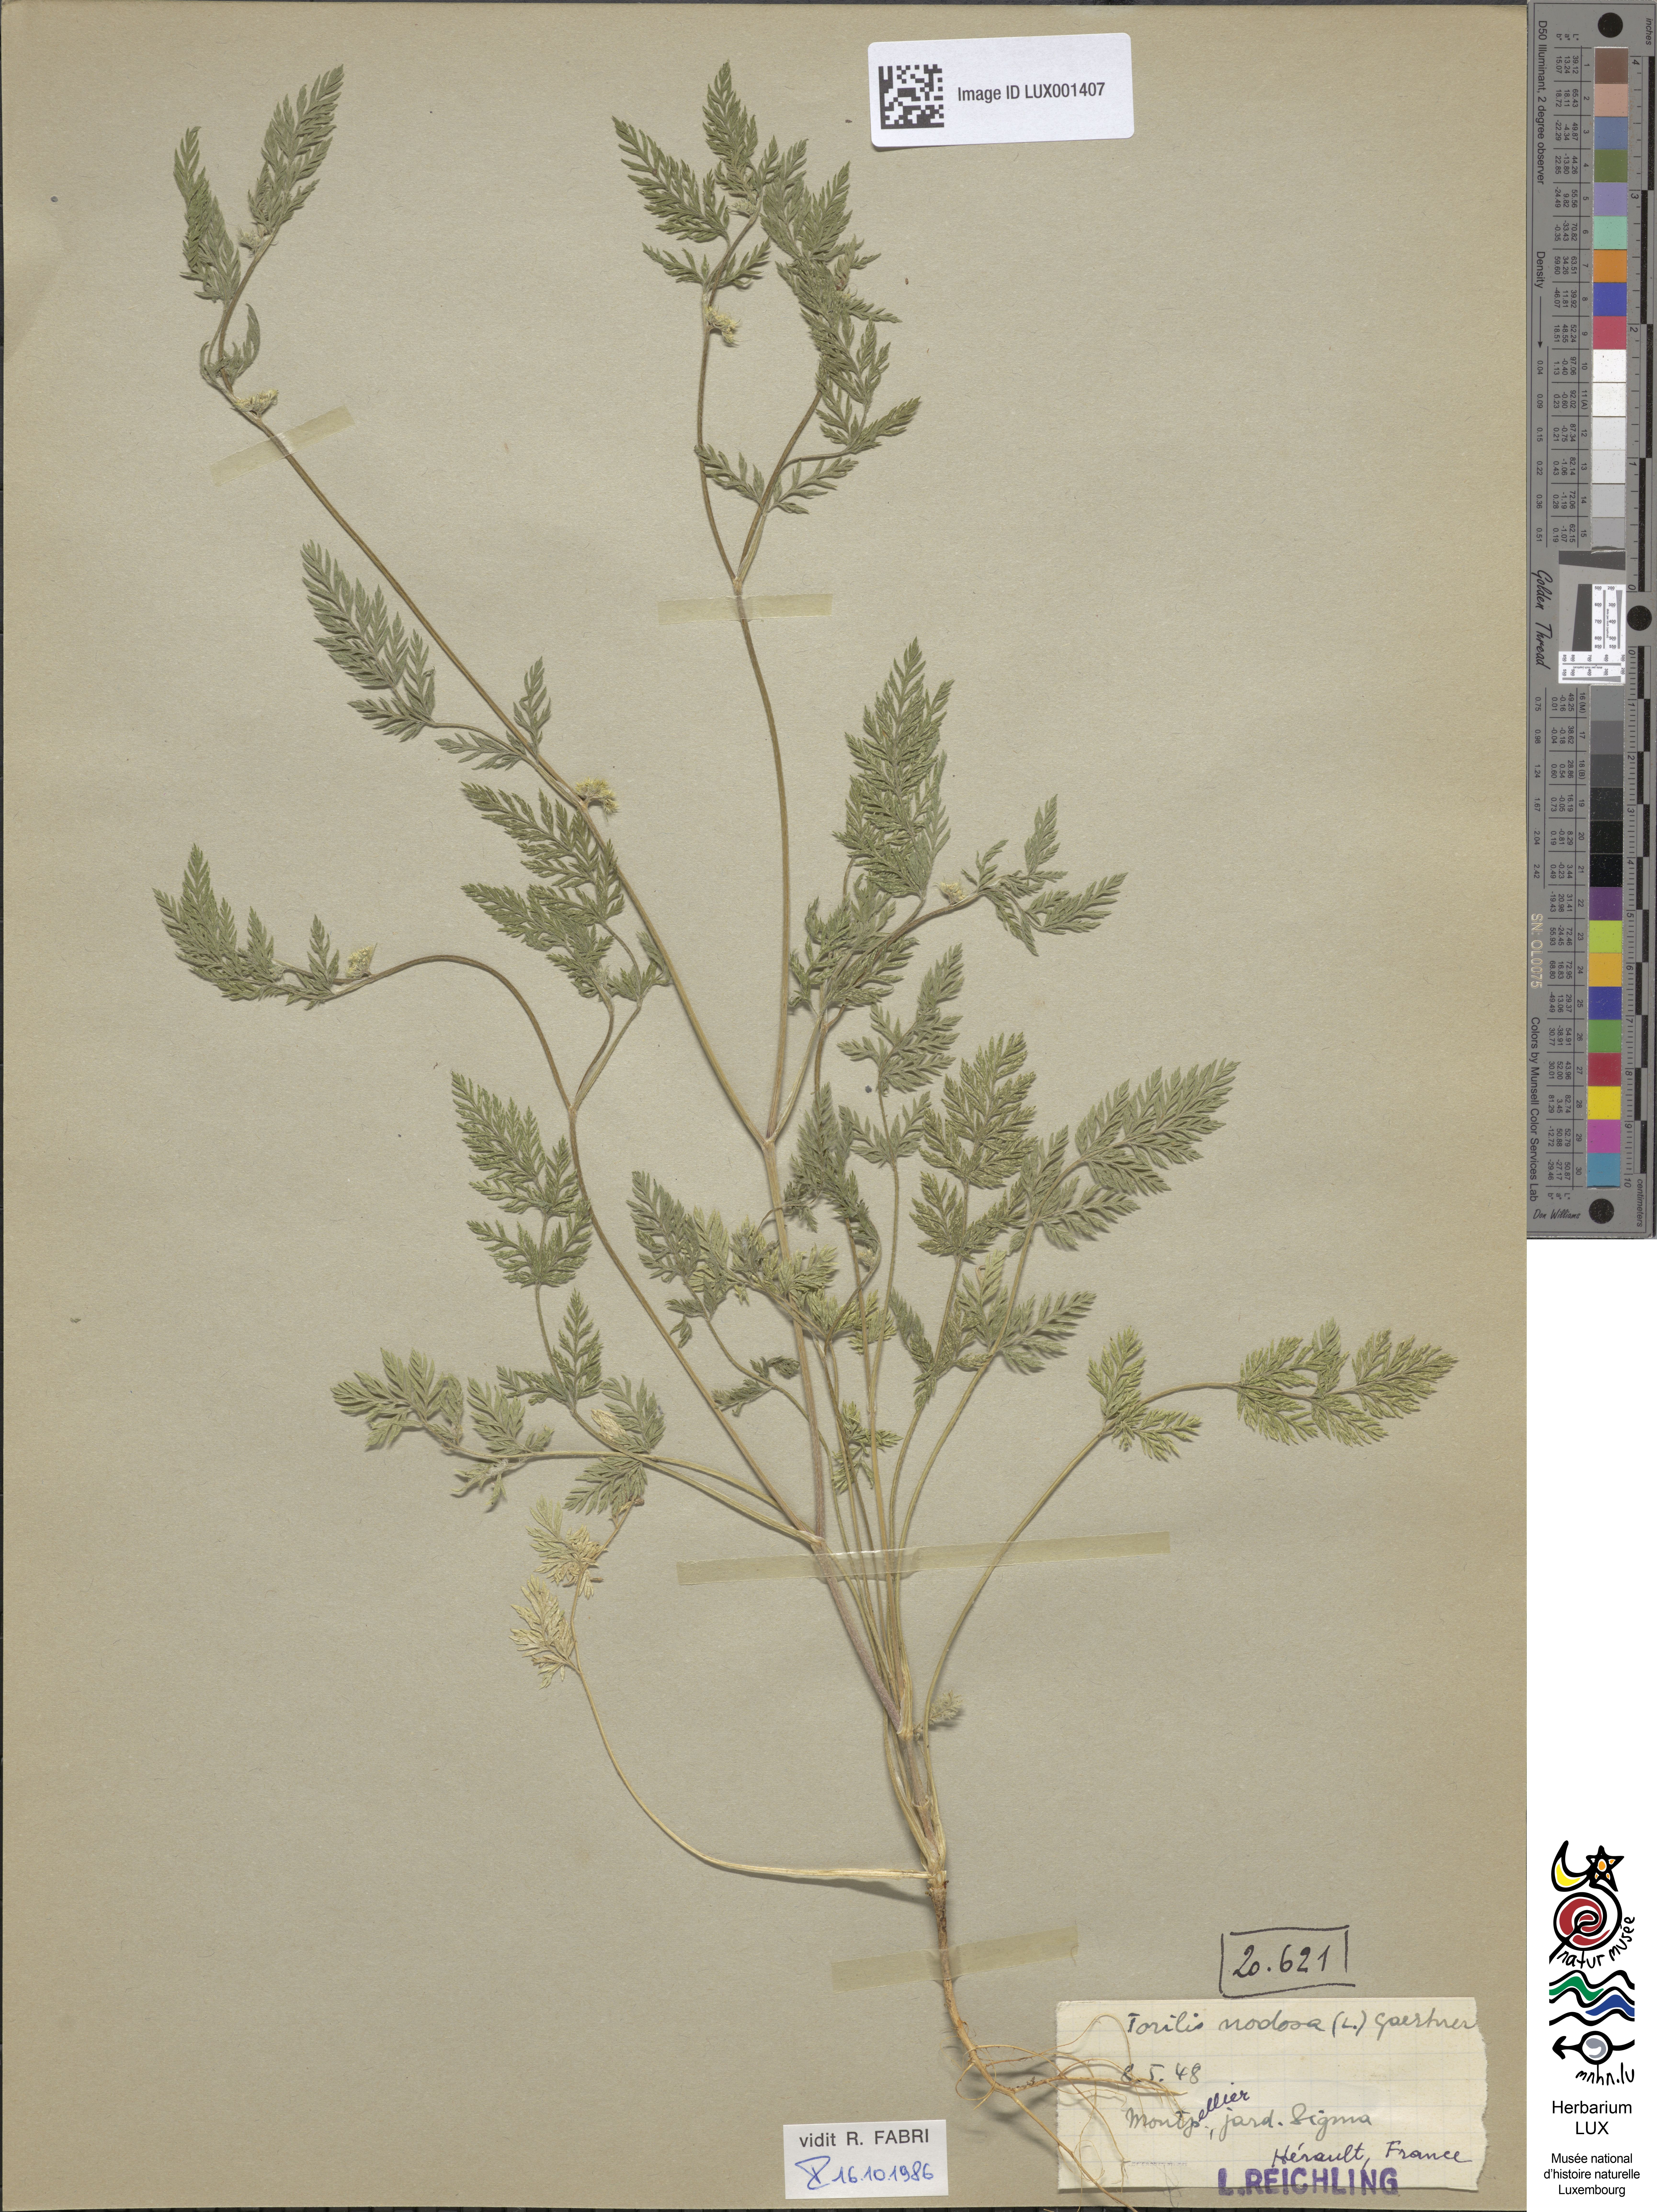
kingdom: Plantae
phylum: Tracheophyta
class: Magnoliopsida
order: Apiales
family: Apiaceae
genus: Torilis
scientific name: Torilis nodosa
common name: Knotted hedge-parsley
